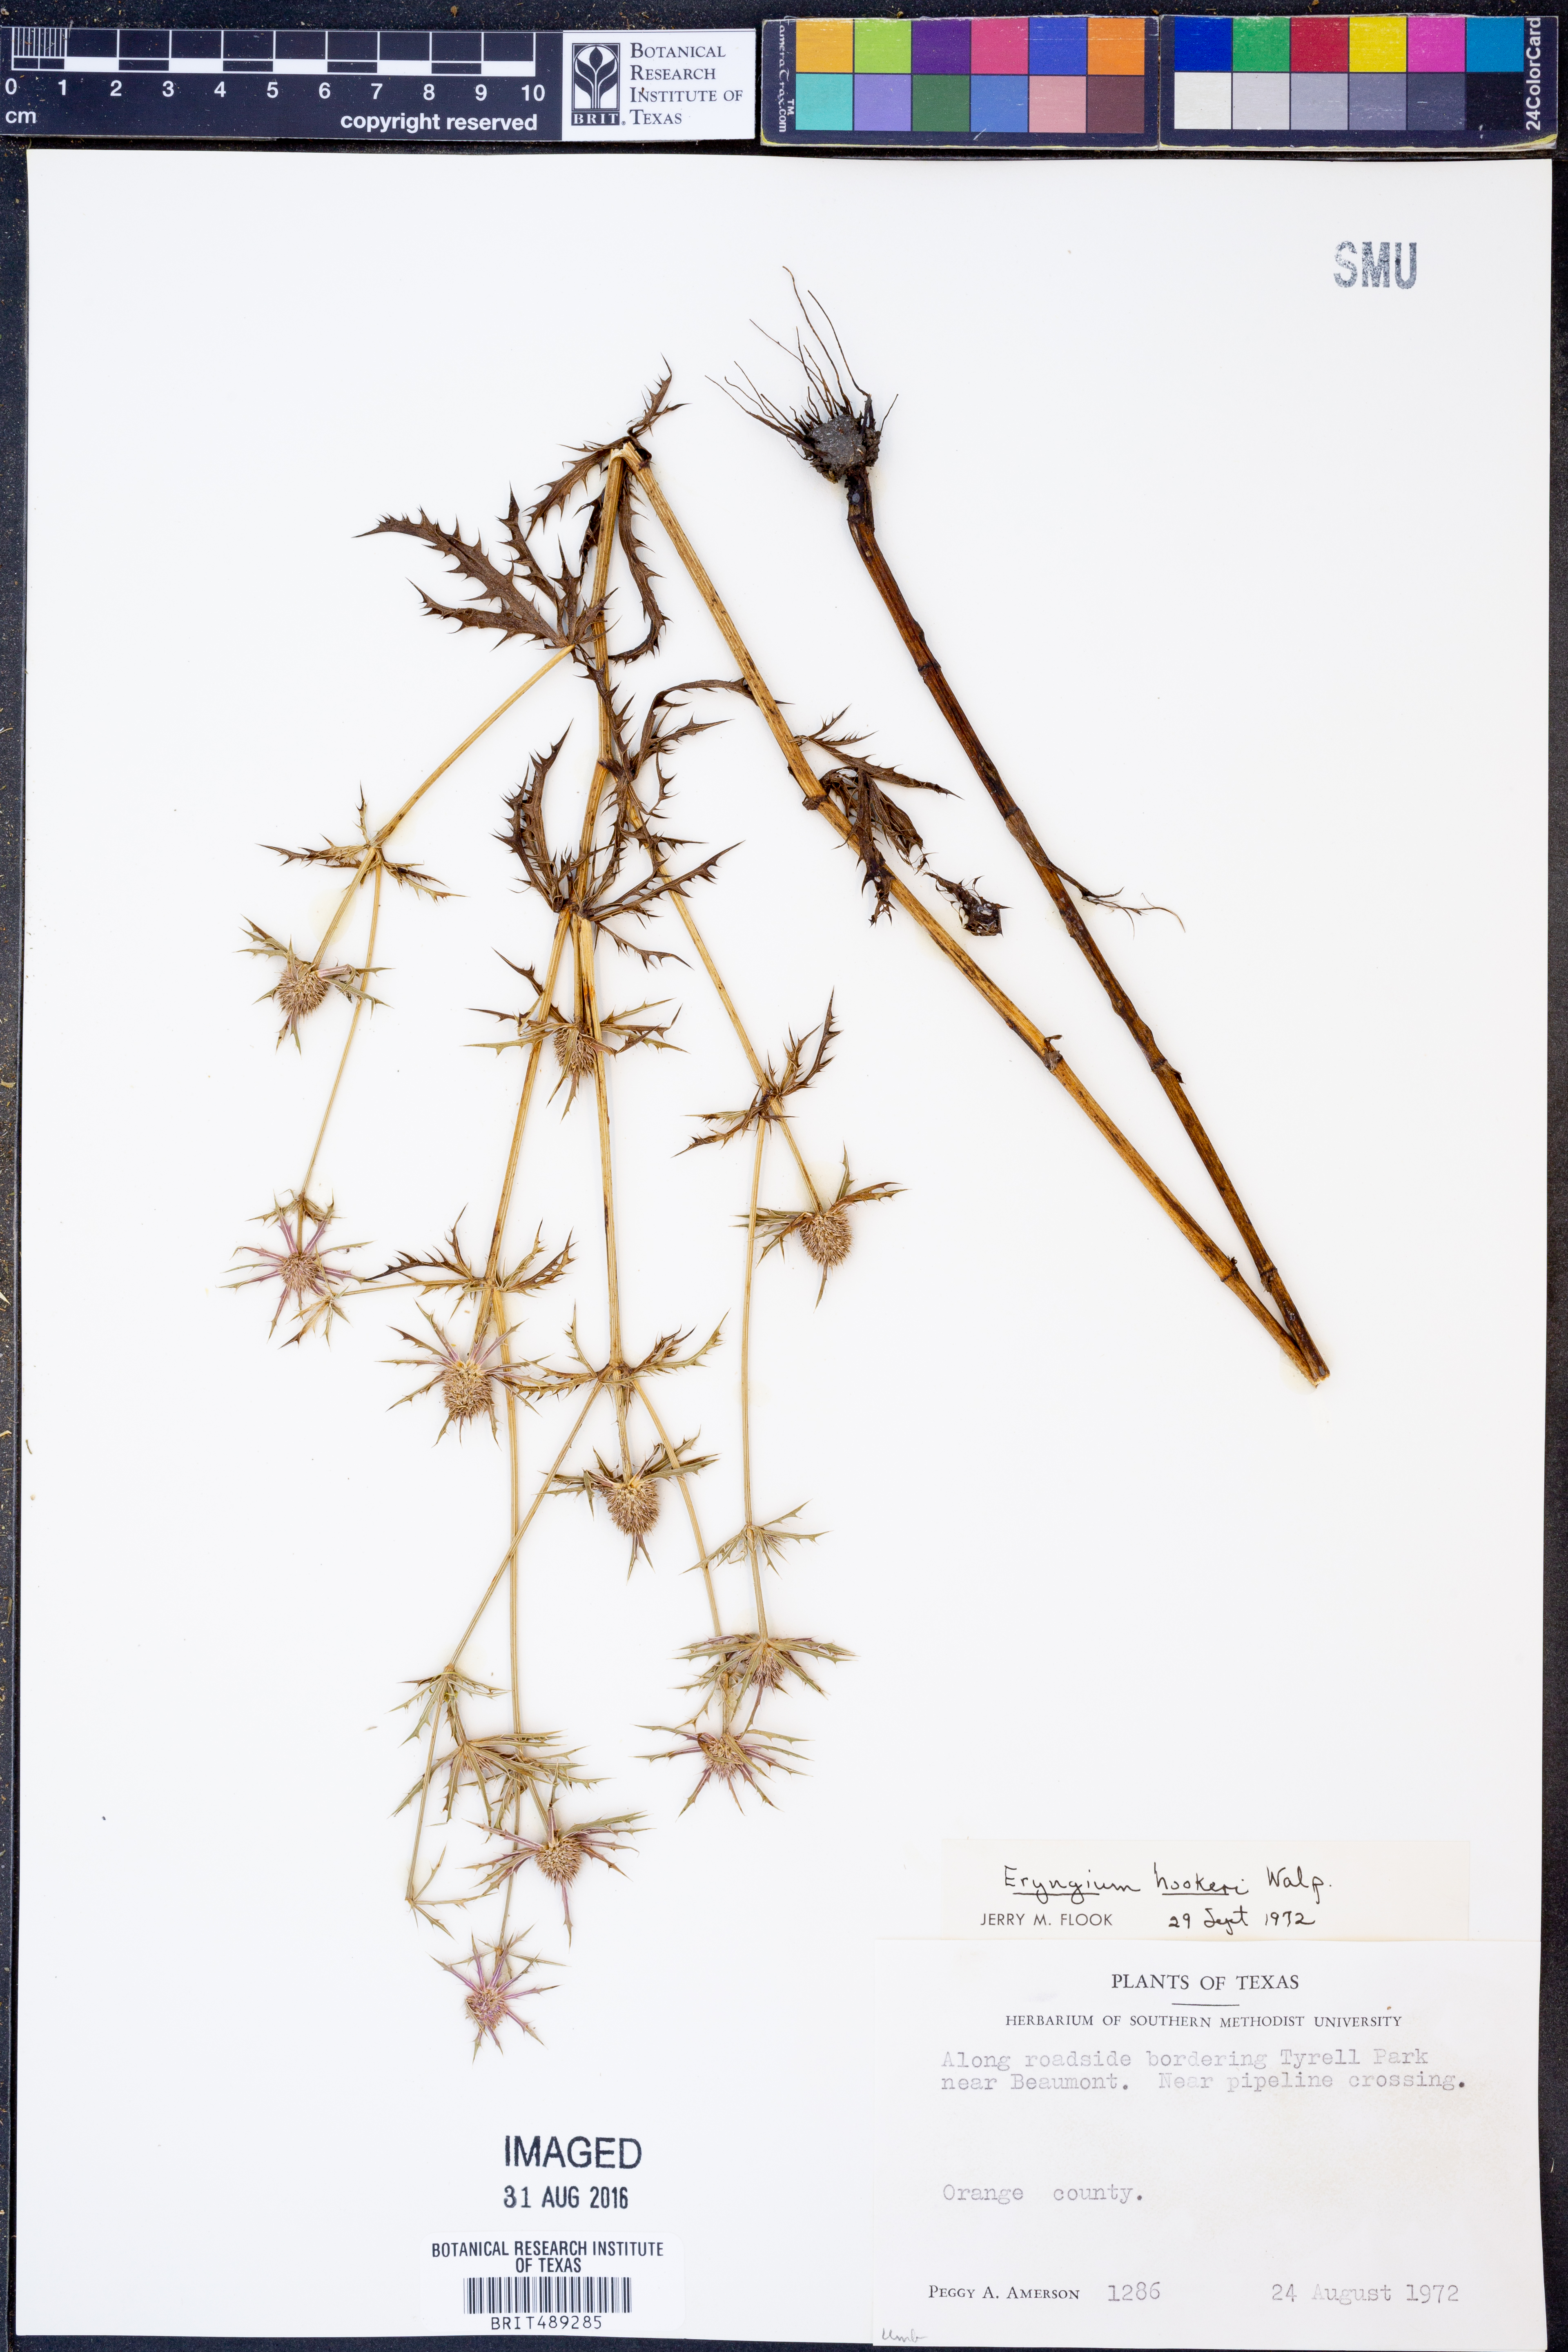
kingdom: Plantae
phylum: Tracheophyta
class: Magnoliopsida
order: Apiales
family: Apiaceae
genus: Eryngium
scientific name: Eryngium hookeri
